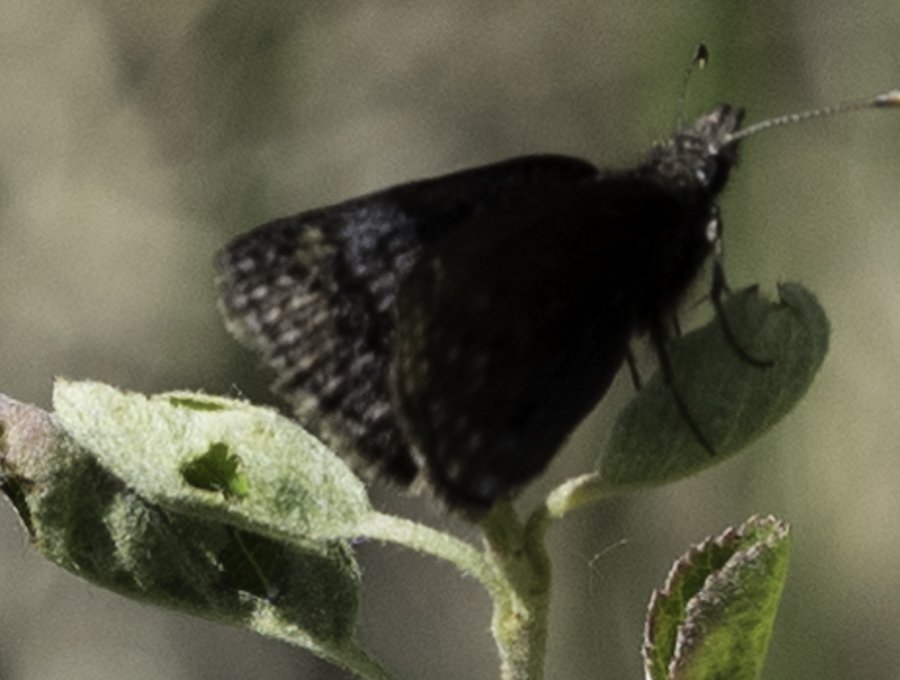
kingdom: Animalia
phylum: Arthropoda
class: Insecta
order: Lepidoptera
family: Hesperiidae
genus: Erynnis
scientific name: Erynnis icelus
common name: Dreamy Duskywing
